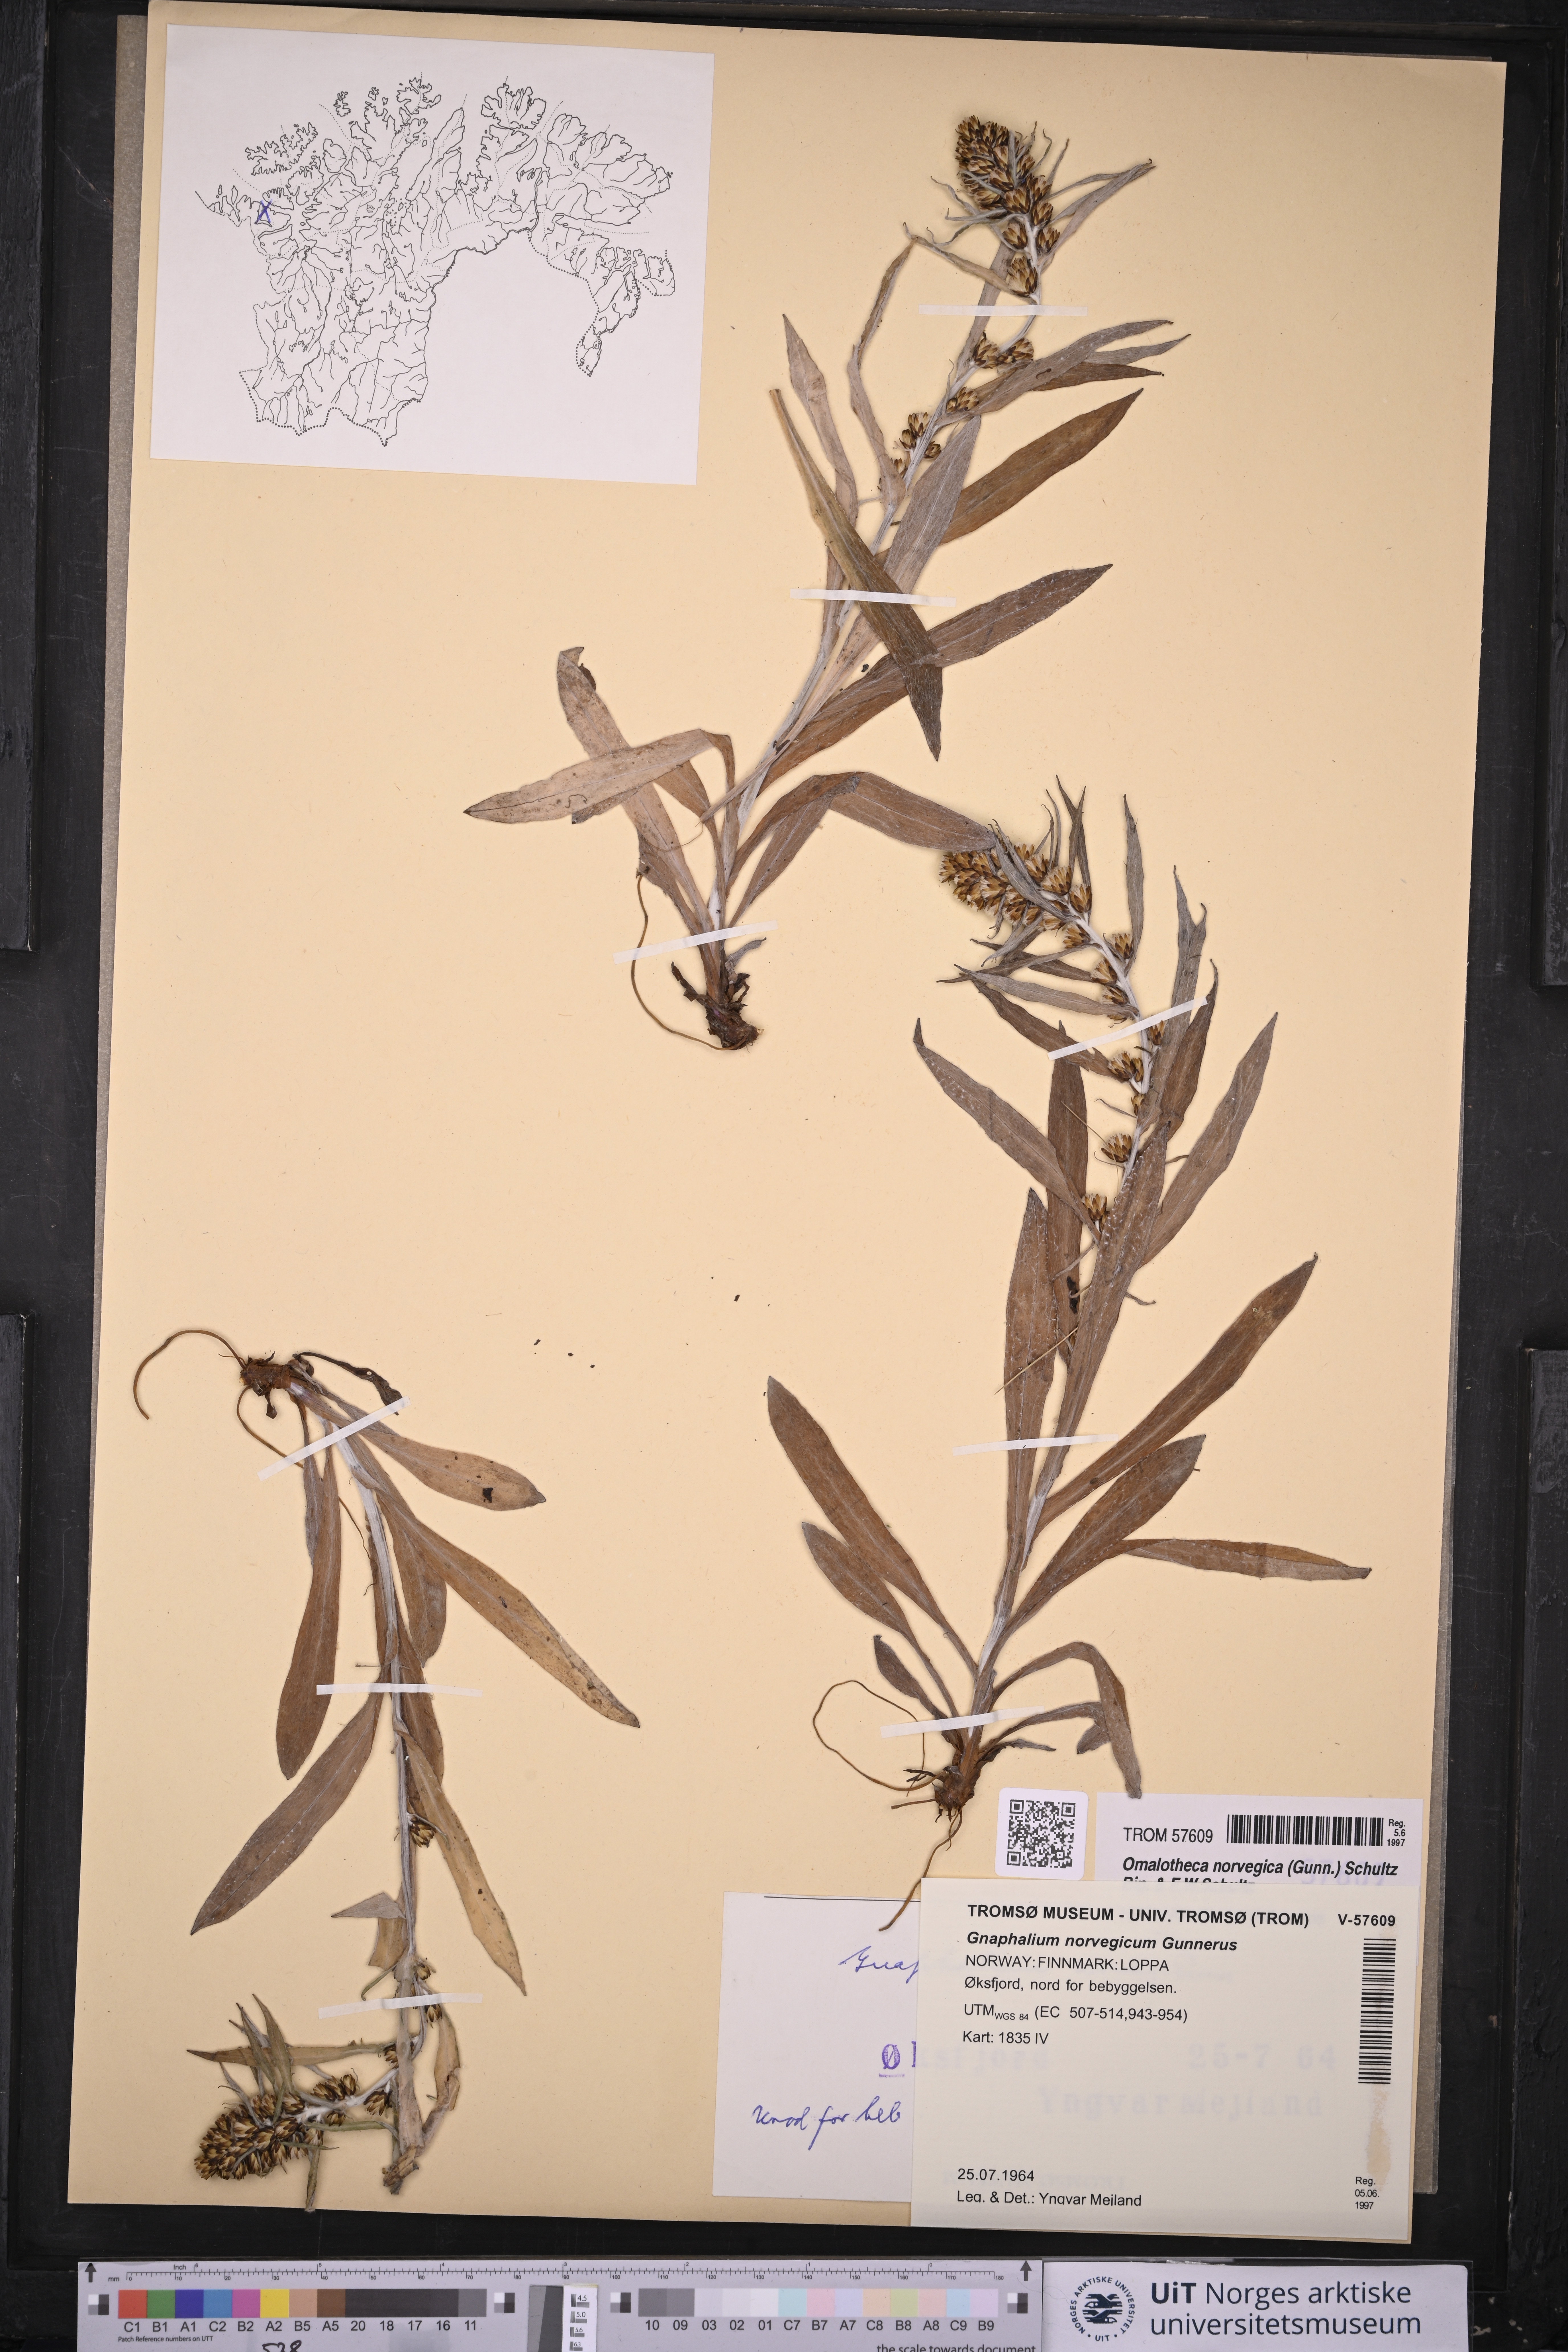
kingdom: Plantae
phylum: Tracheophyta
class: Magnoliopsida
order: Asterales
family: Asteraceae
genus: Omalotheca
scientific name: Omalotheca norvegica
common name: Norwegian arctic-cudweed
